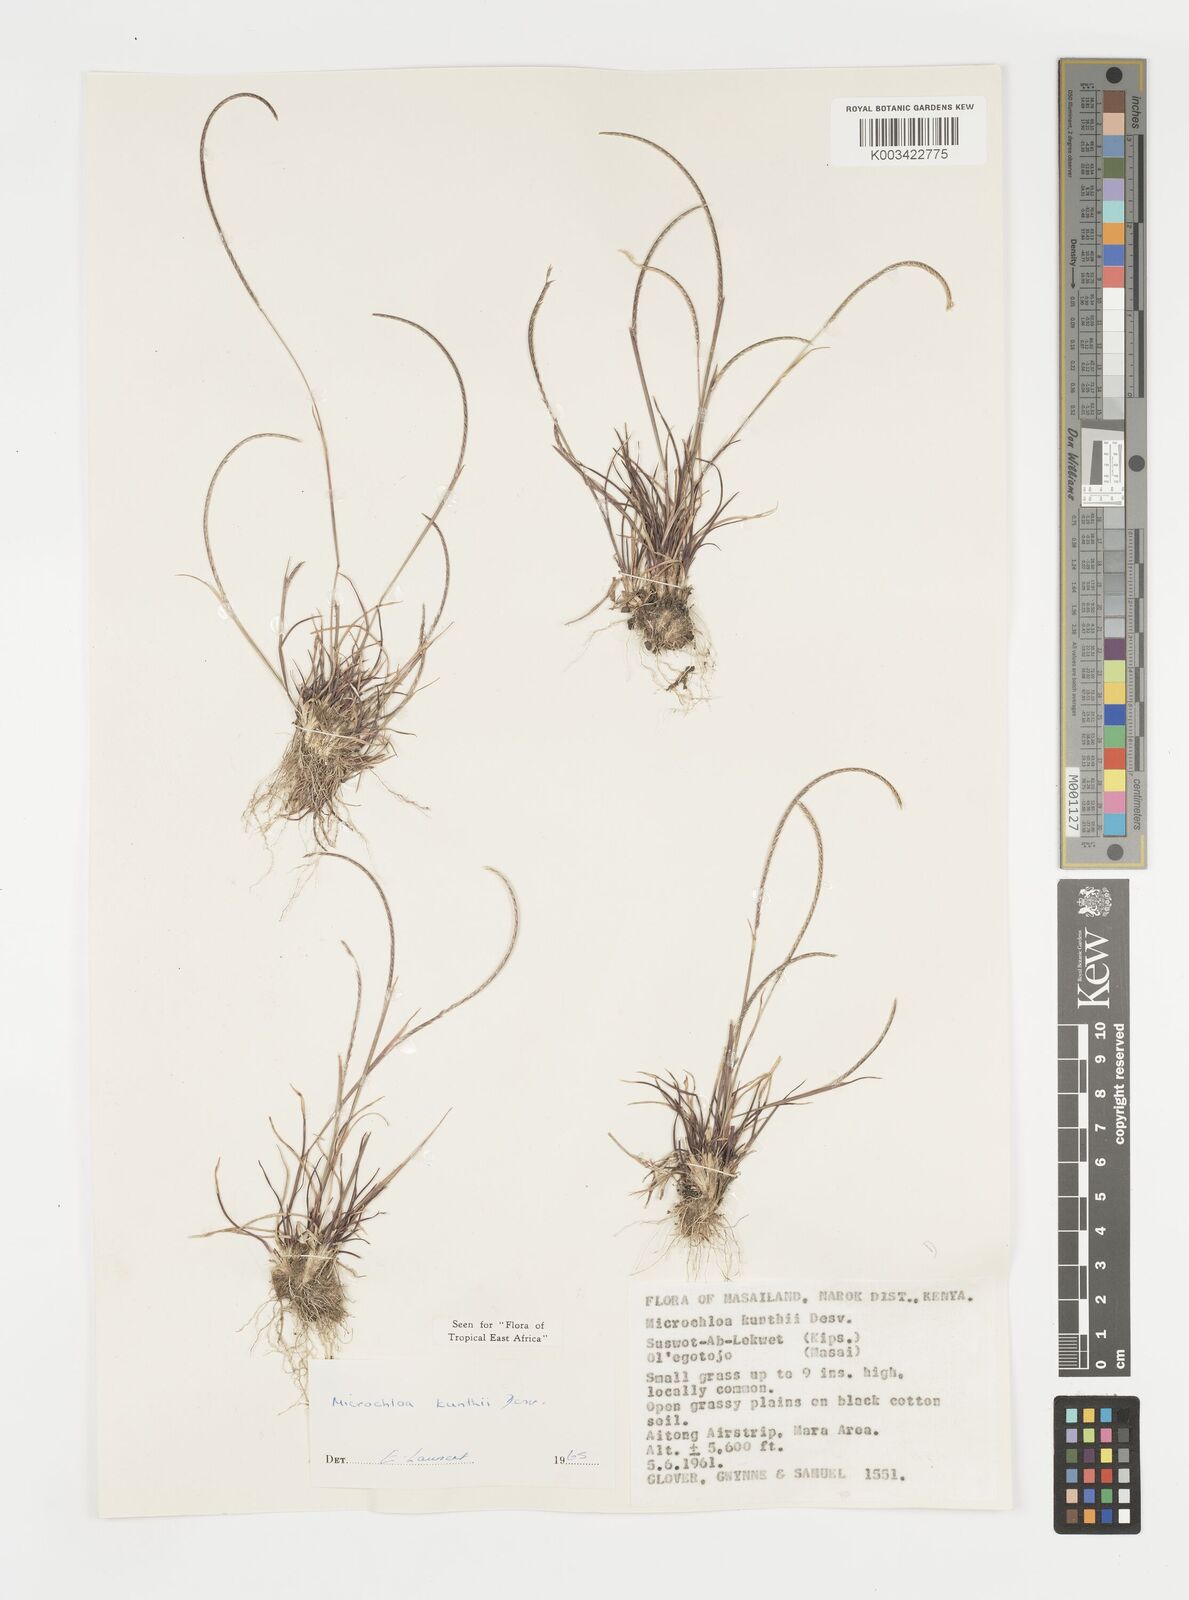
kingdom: Plantae
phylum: Tracheophyta
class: Liliopsida
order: Poales
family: Poaceae
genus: Microchloa
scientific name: Microchloa kunthii
